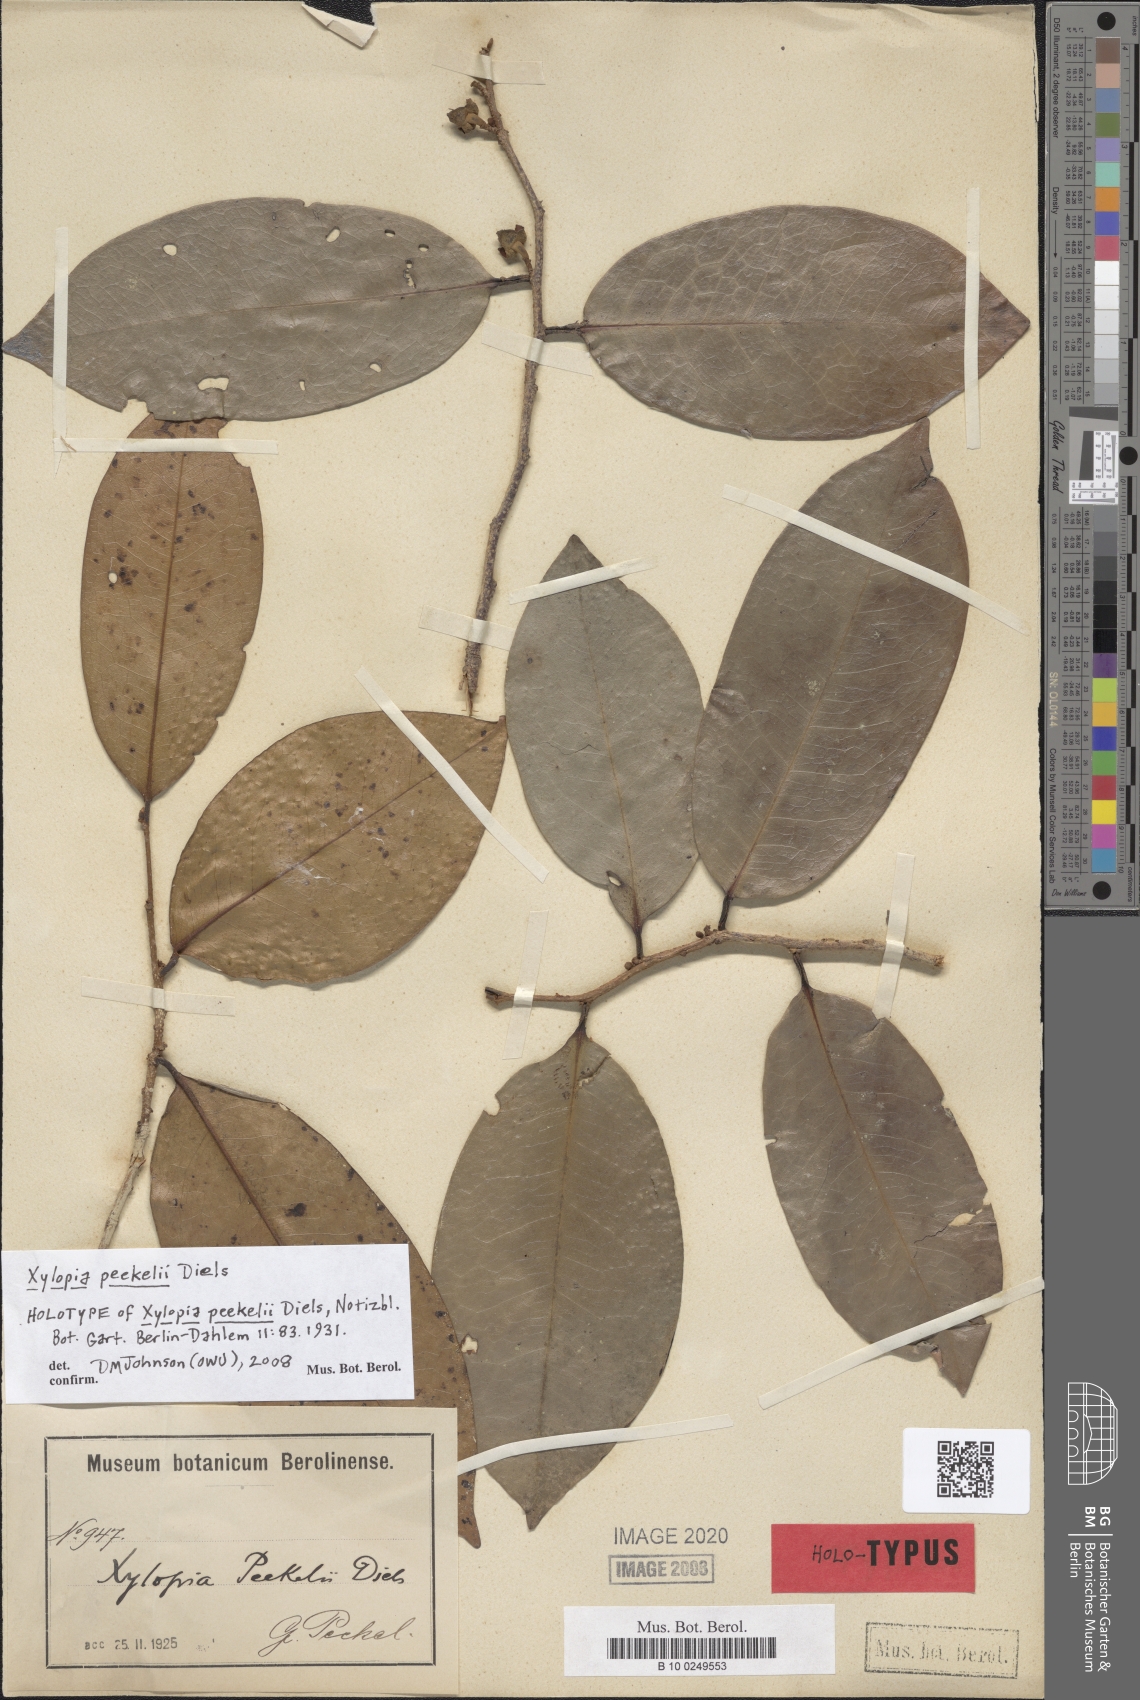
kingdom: Plantae
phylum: Tracheophyta
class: Magnoliopsida
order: Magnoliales
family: Annonaceae
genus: Xylopia
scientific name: Xylopia peekelii
